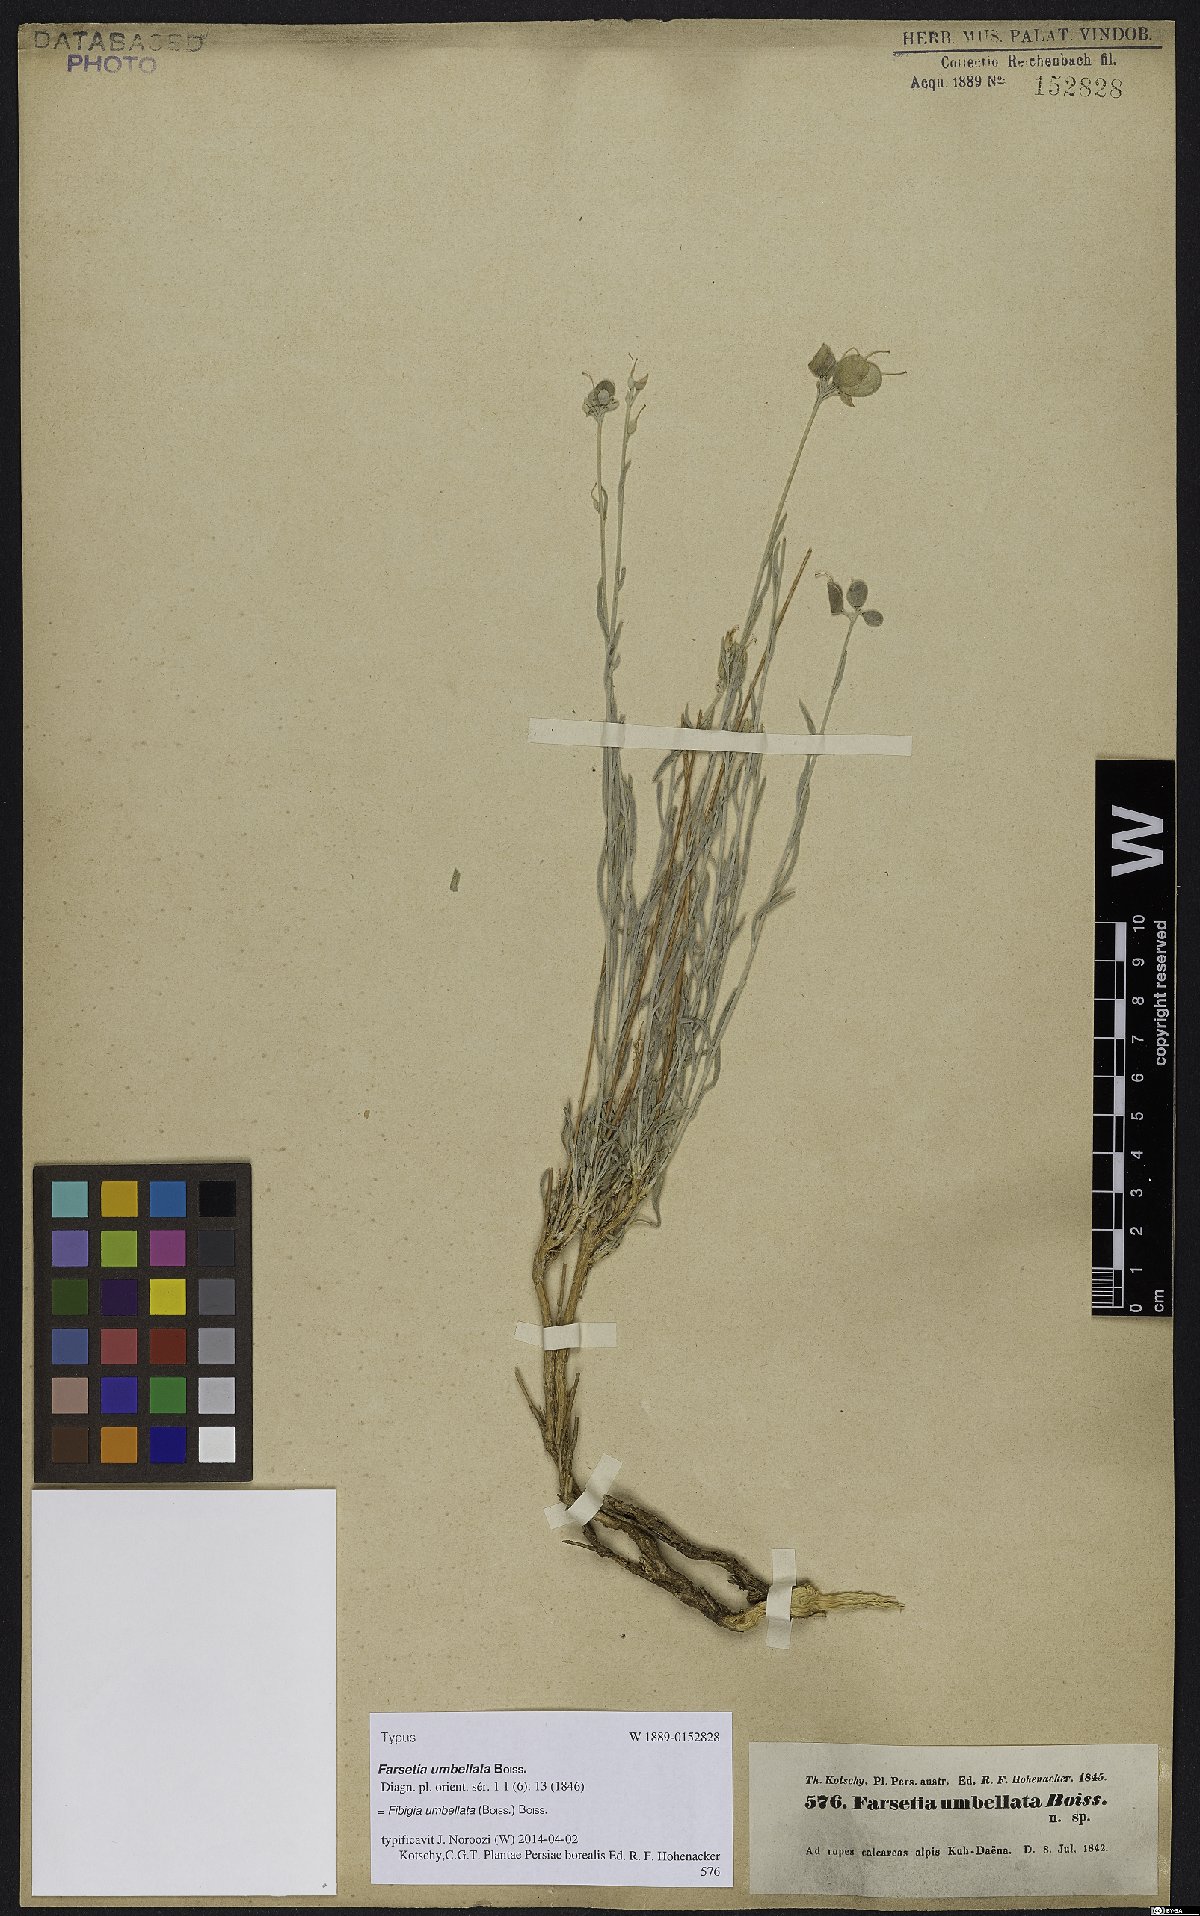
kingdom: Plantae
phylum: Tracheophyta
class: Magnoliopsida
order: Brassicales
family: Brassicaceae
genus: Irania
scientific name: Irania umbellata
